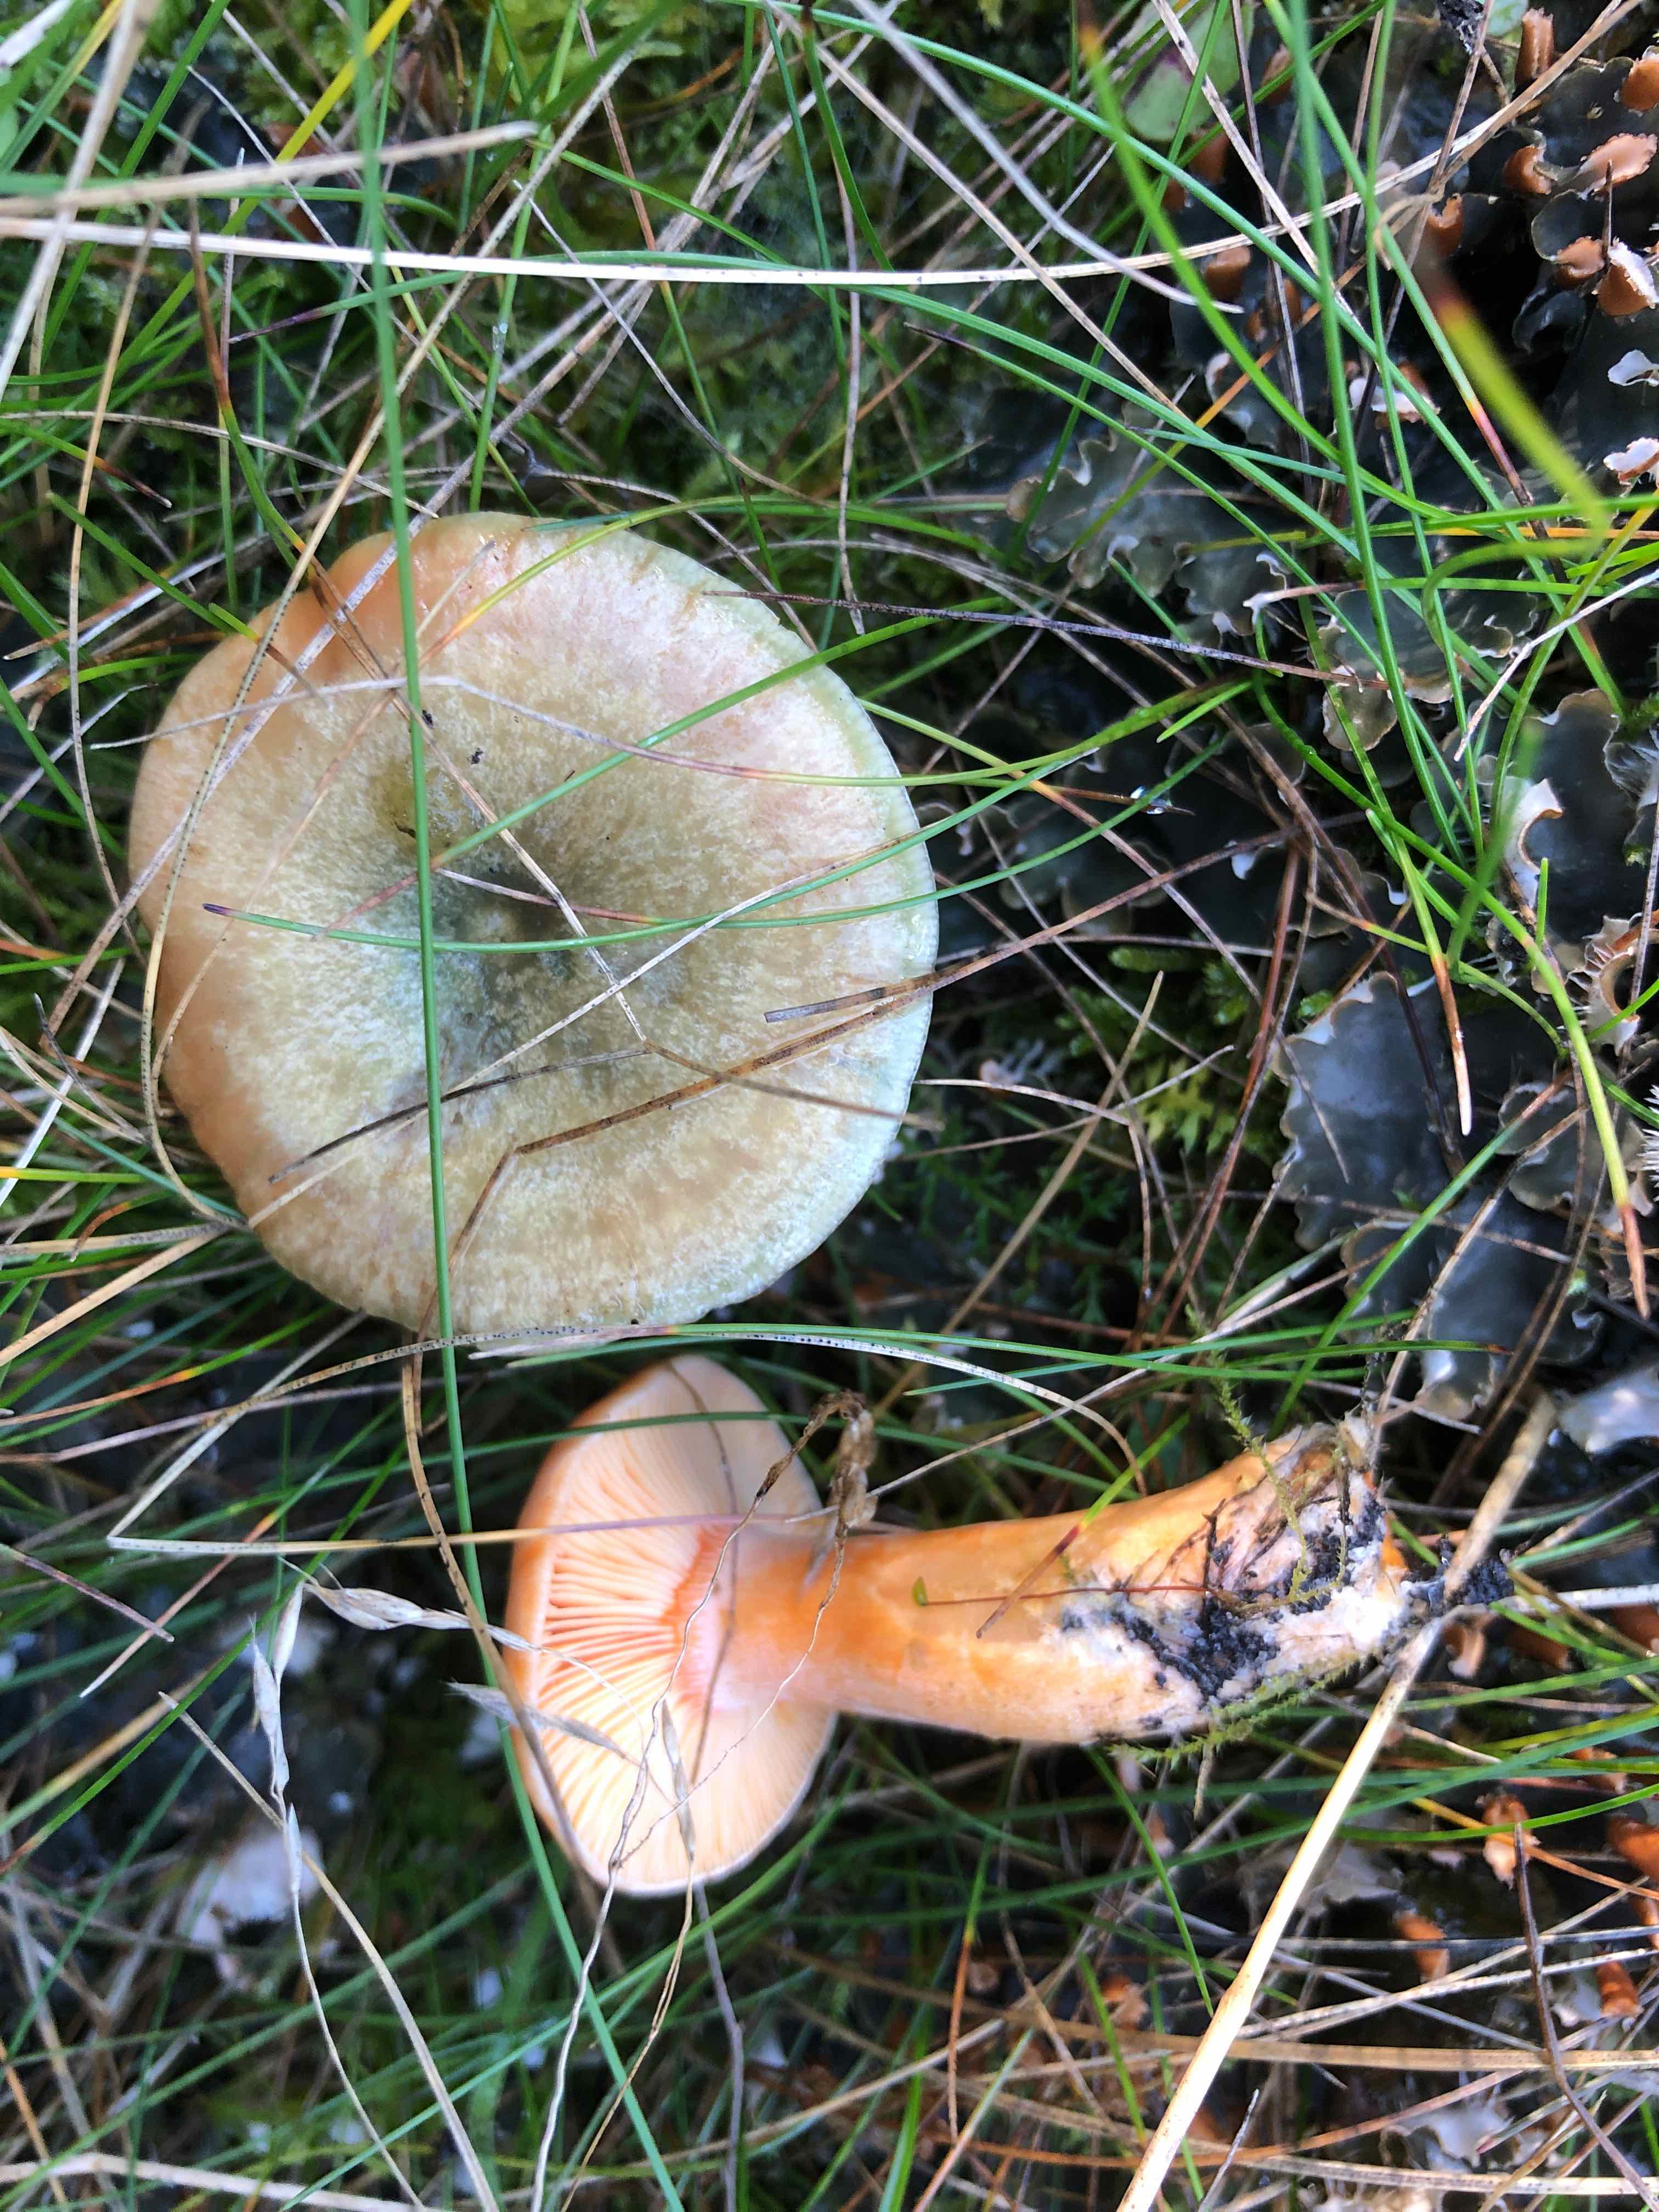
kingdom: Fungi
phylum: Basidiomycota
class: Agaricomycetes
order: Russulales
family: Russulaceae
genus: Lactarius
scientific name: Lactarius
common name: mælkehat
